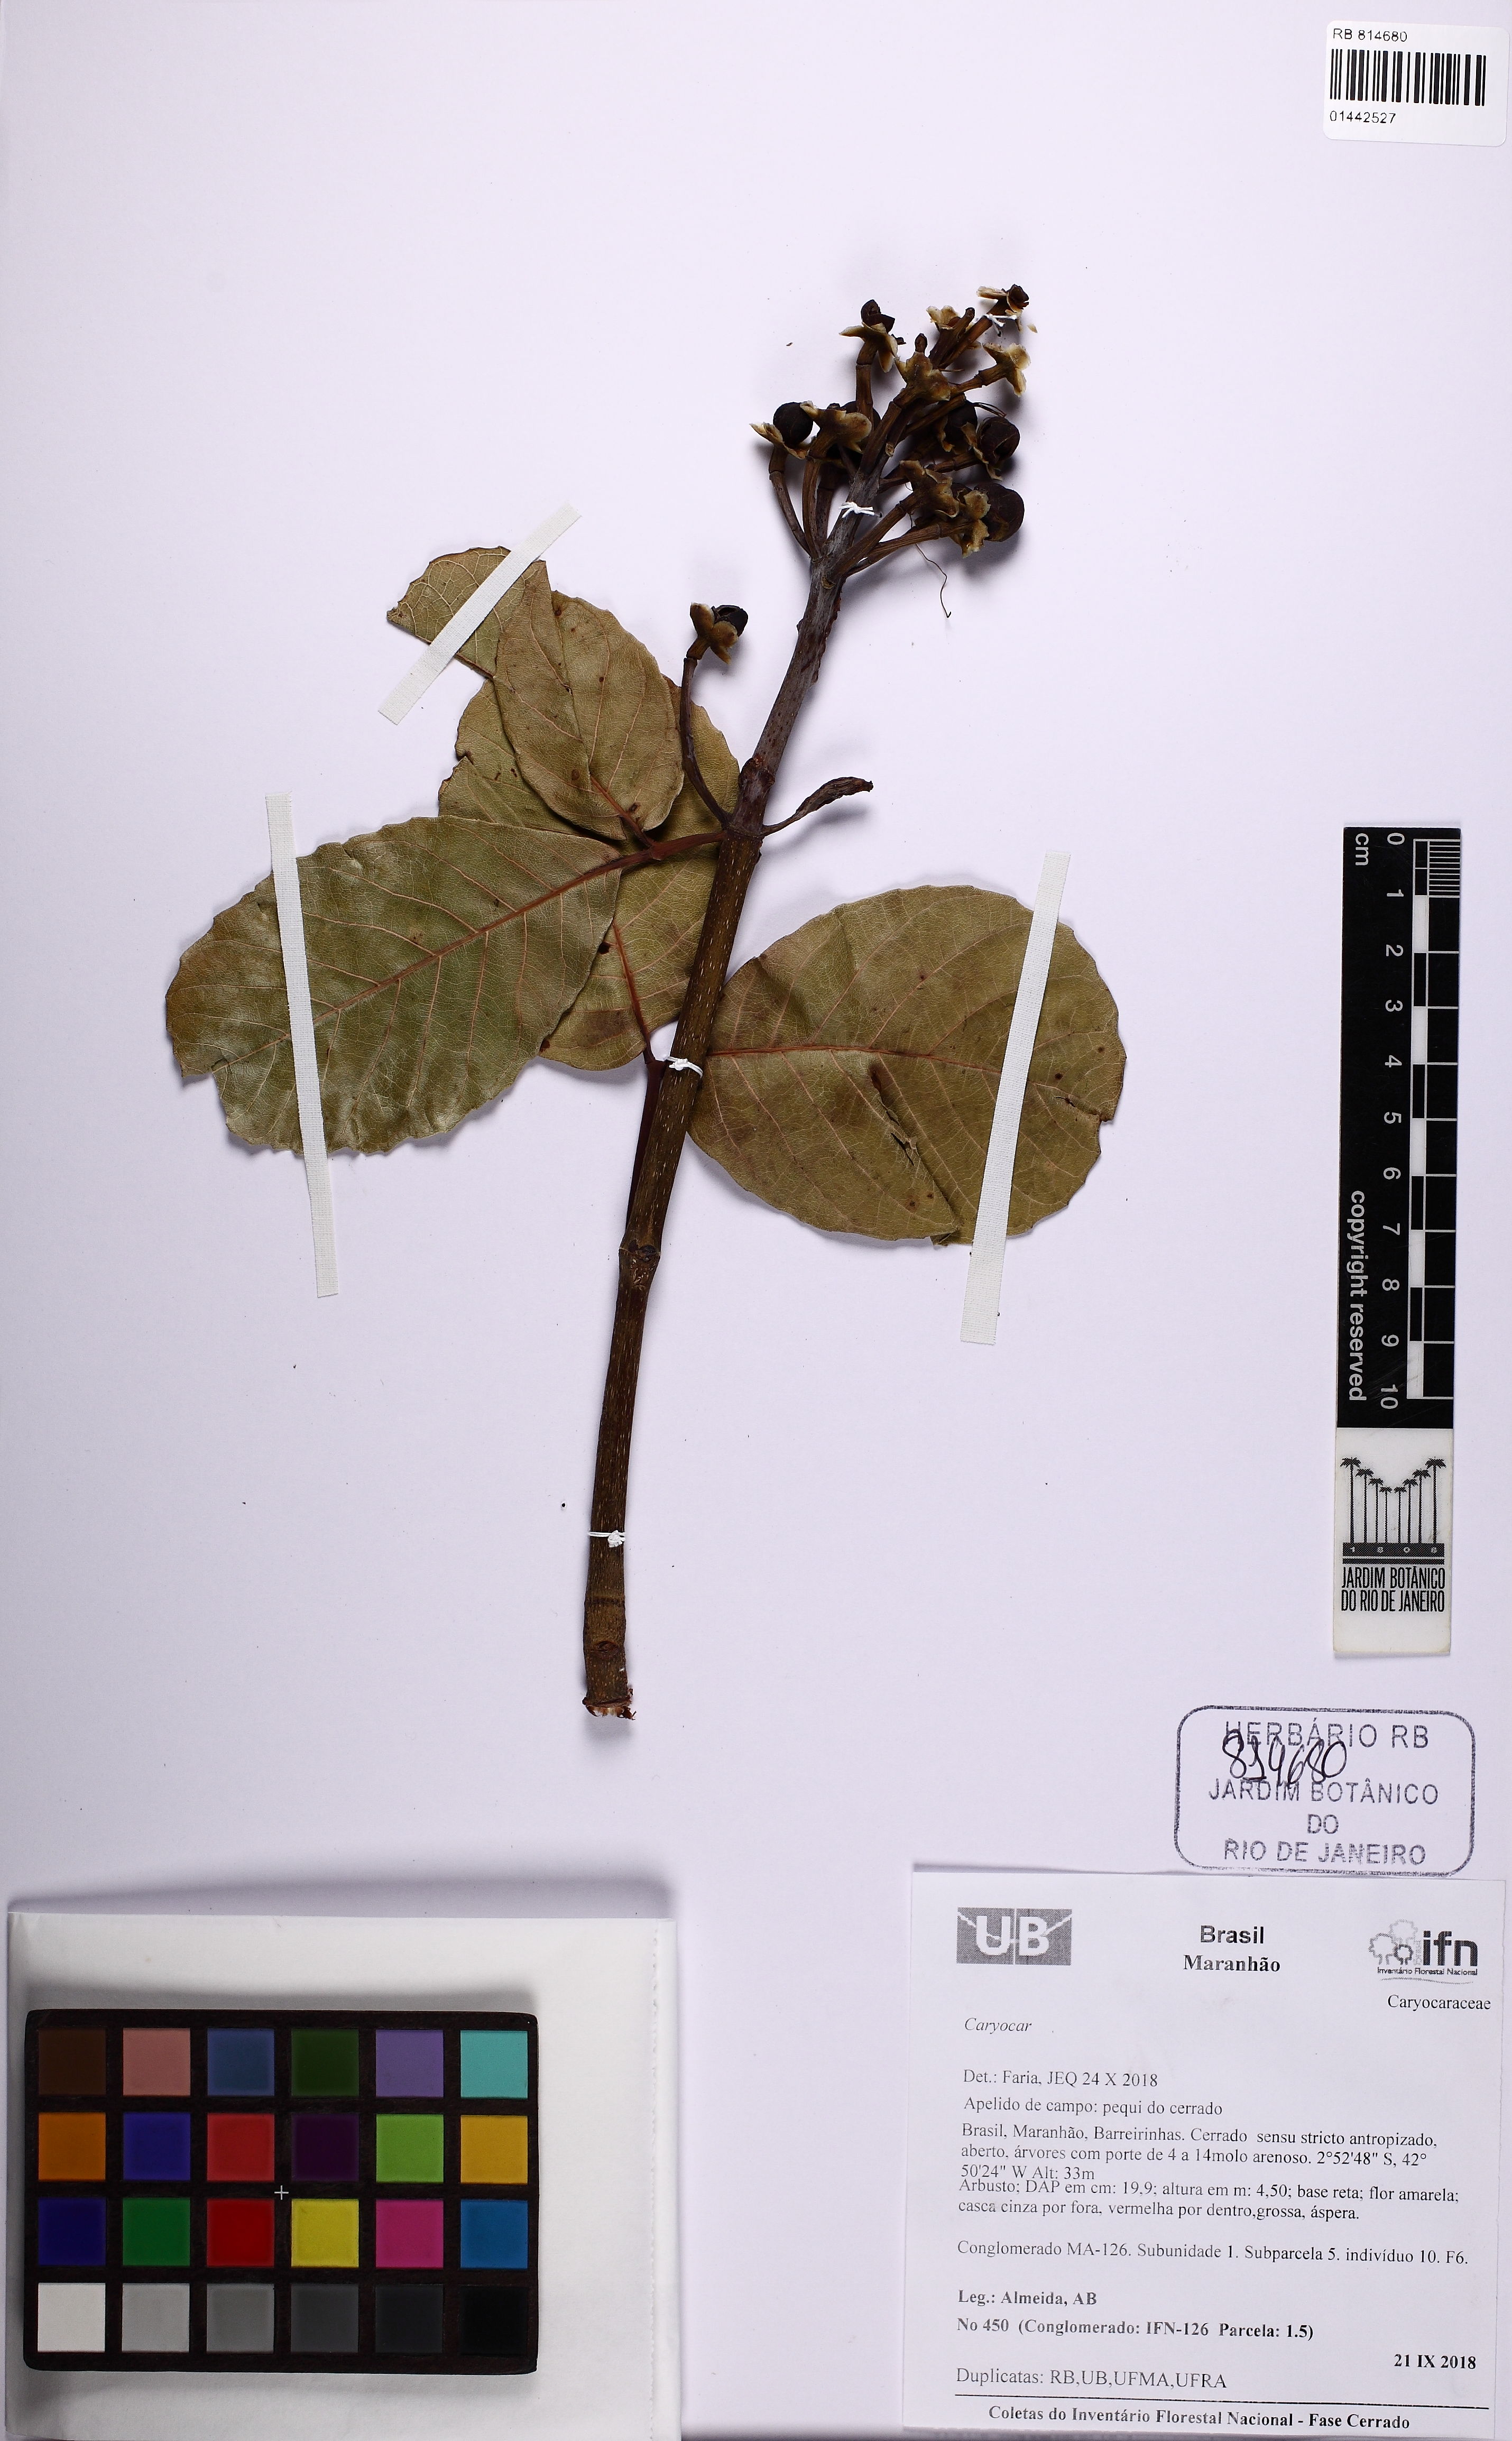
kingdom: Plantae
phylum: Tracheophyta
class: Magnoliopsida
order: Malpighiales
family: Caryocaraceae
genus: Caryocar
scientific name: Caryocar
